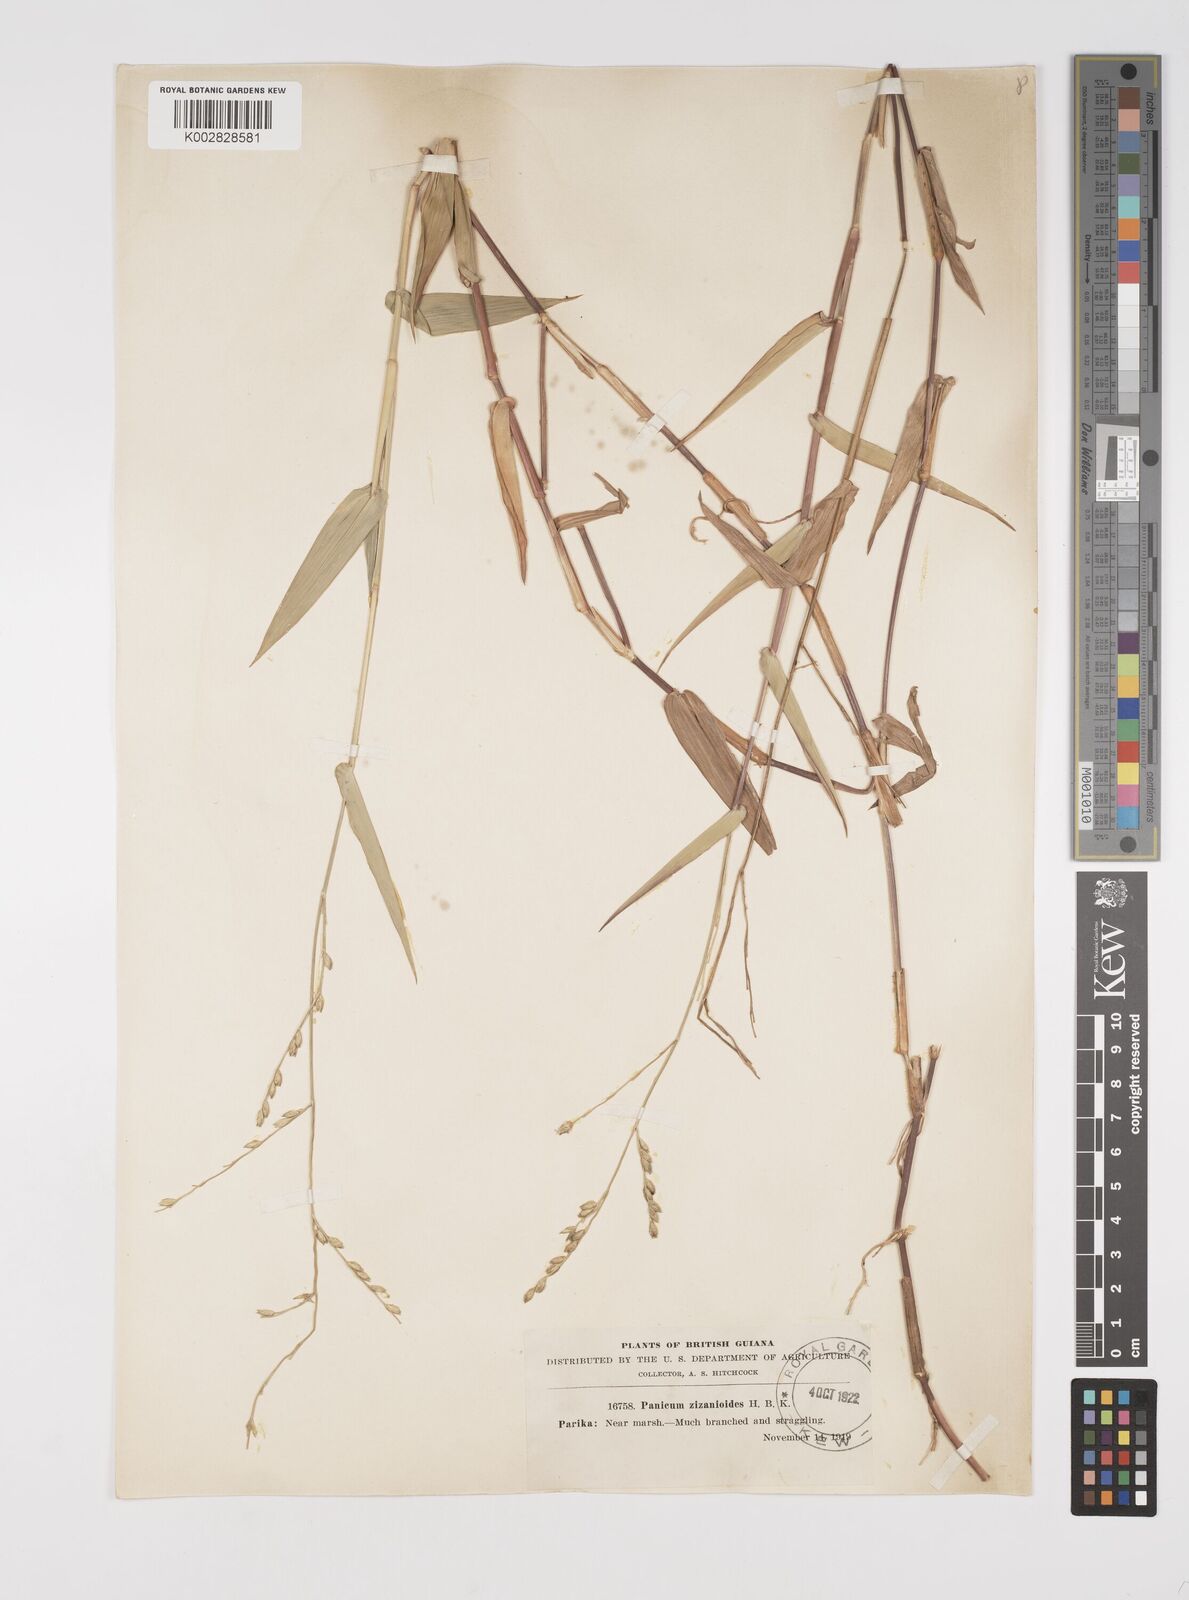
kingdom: Plantae
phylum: Tracheophyta
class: Liliopsida
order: Poales
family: Poaceae
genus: Acroceras
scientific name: Acroceras zizanioides
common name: Oat grass
